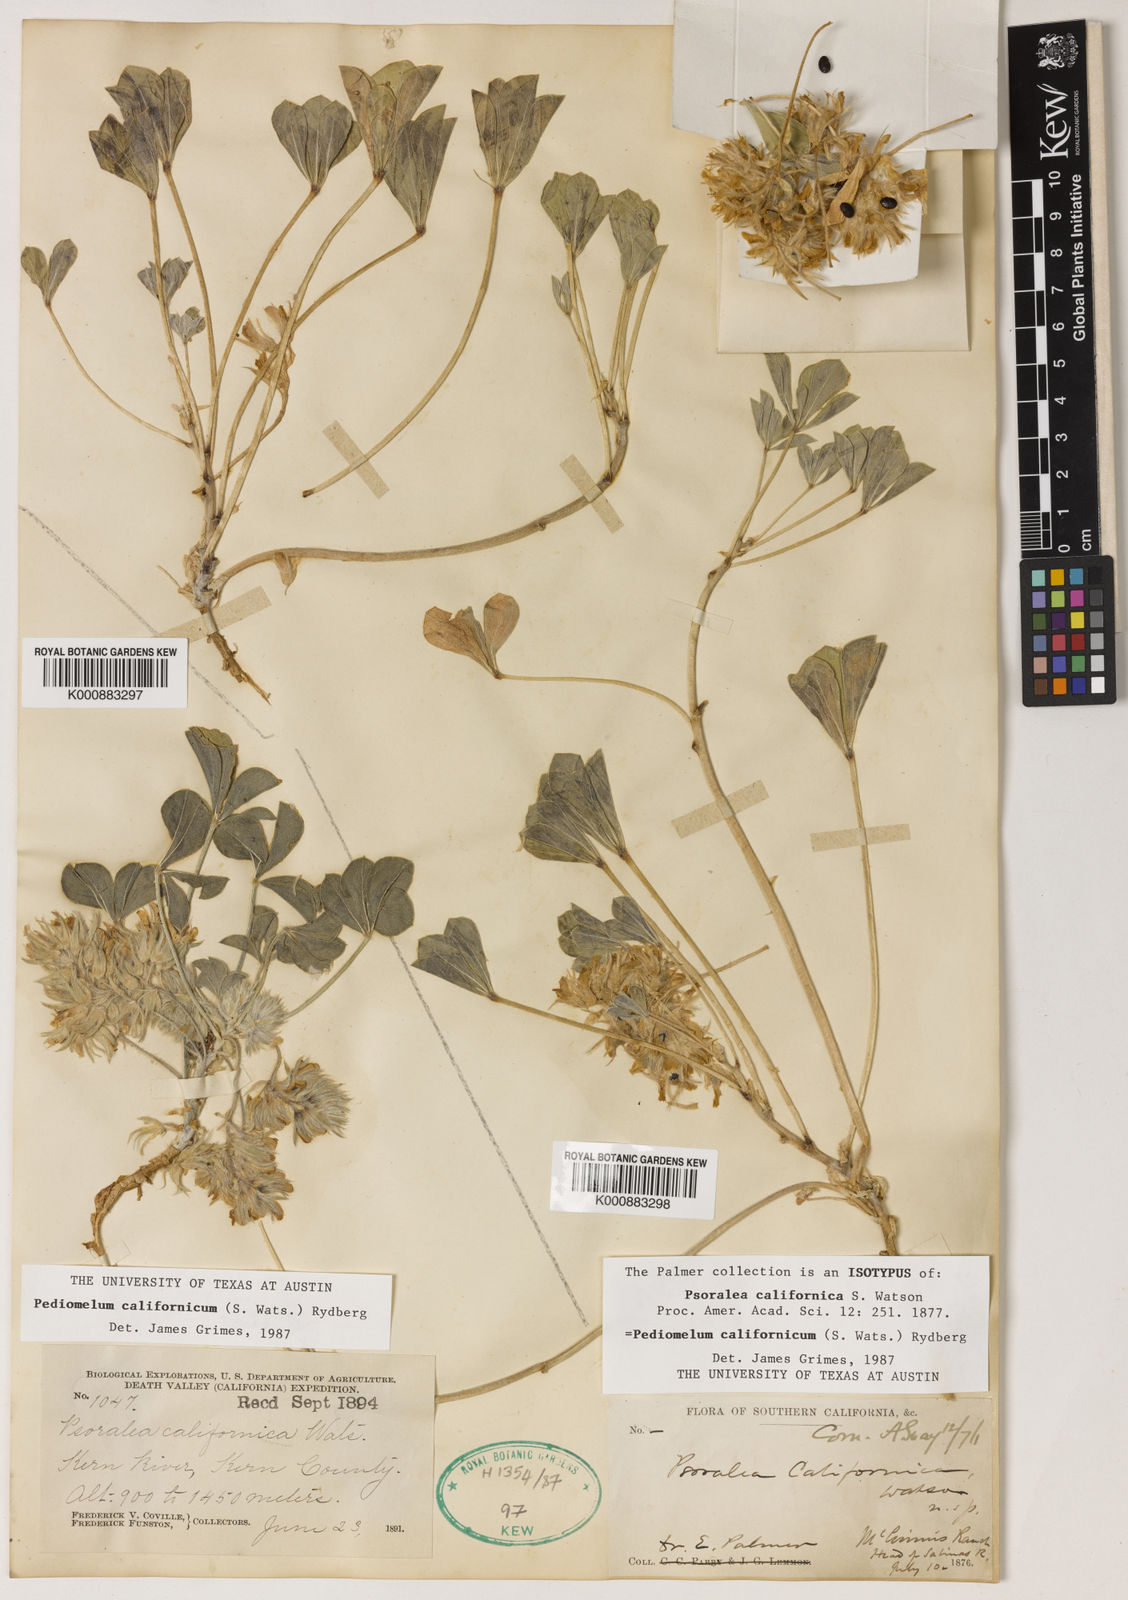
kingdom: Plantae
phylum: Tracheophyta
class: Magnoliopsida
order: Fabales
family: Fabaceae
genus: Pediomelum
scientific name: Pediomelum californicum
